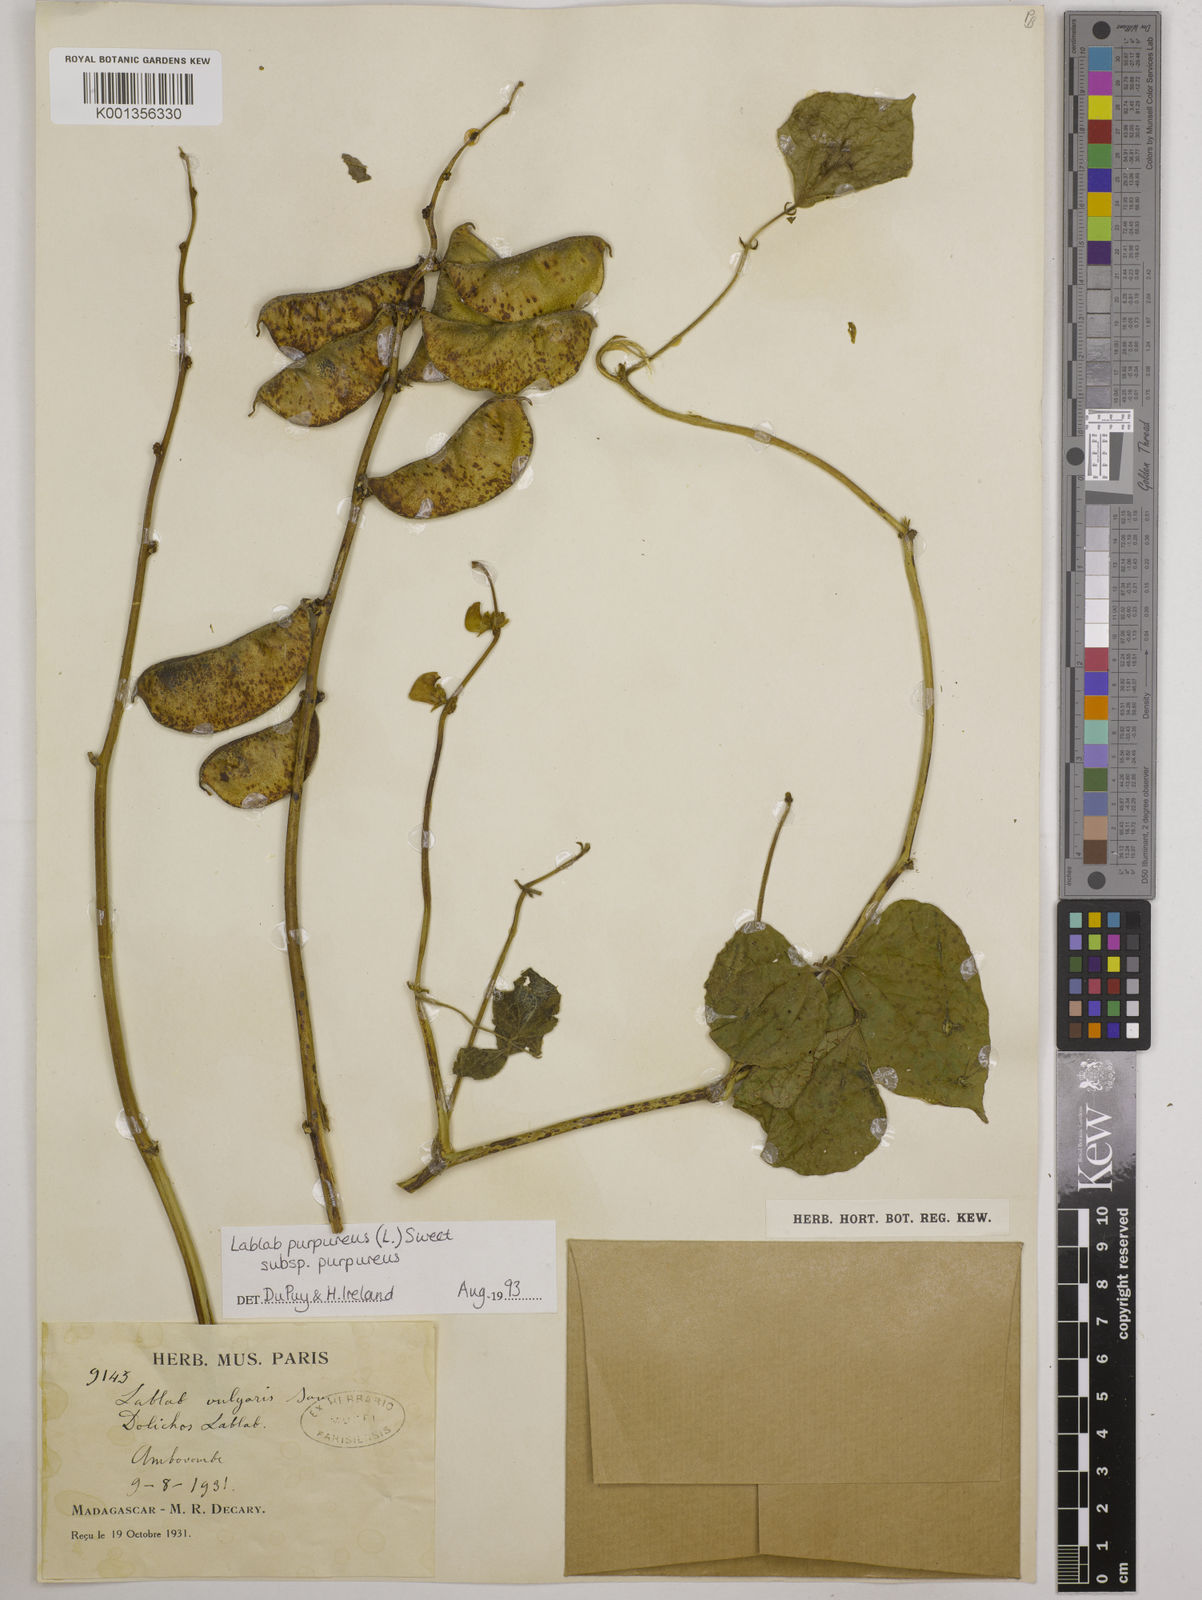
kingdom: Plantae
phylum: Tracheophyta
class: Magnoliopsida
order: Fabales
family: Fabaceae
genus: Lablab
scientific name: Lablab purpureus
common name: Lablab-bean
